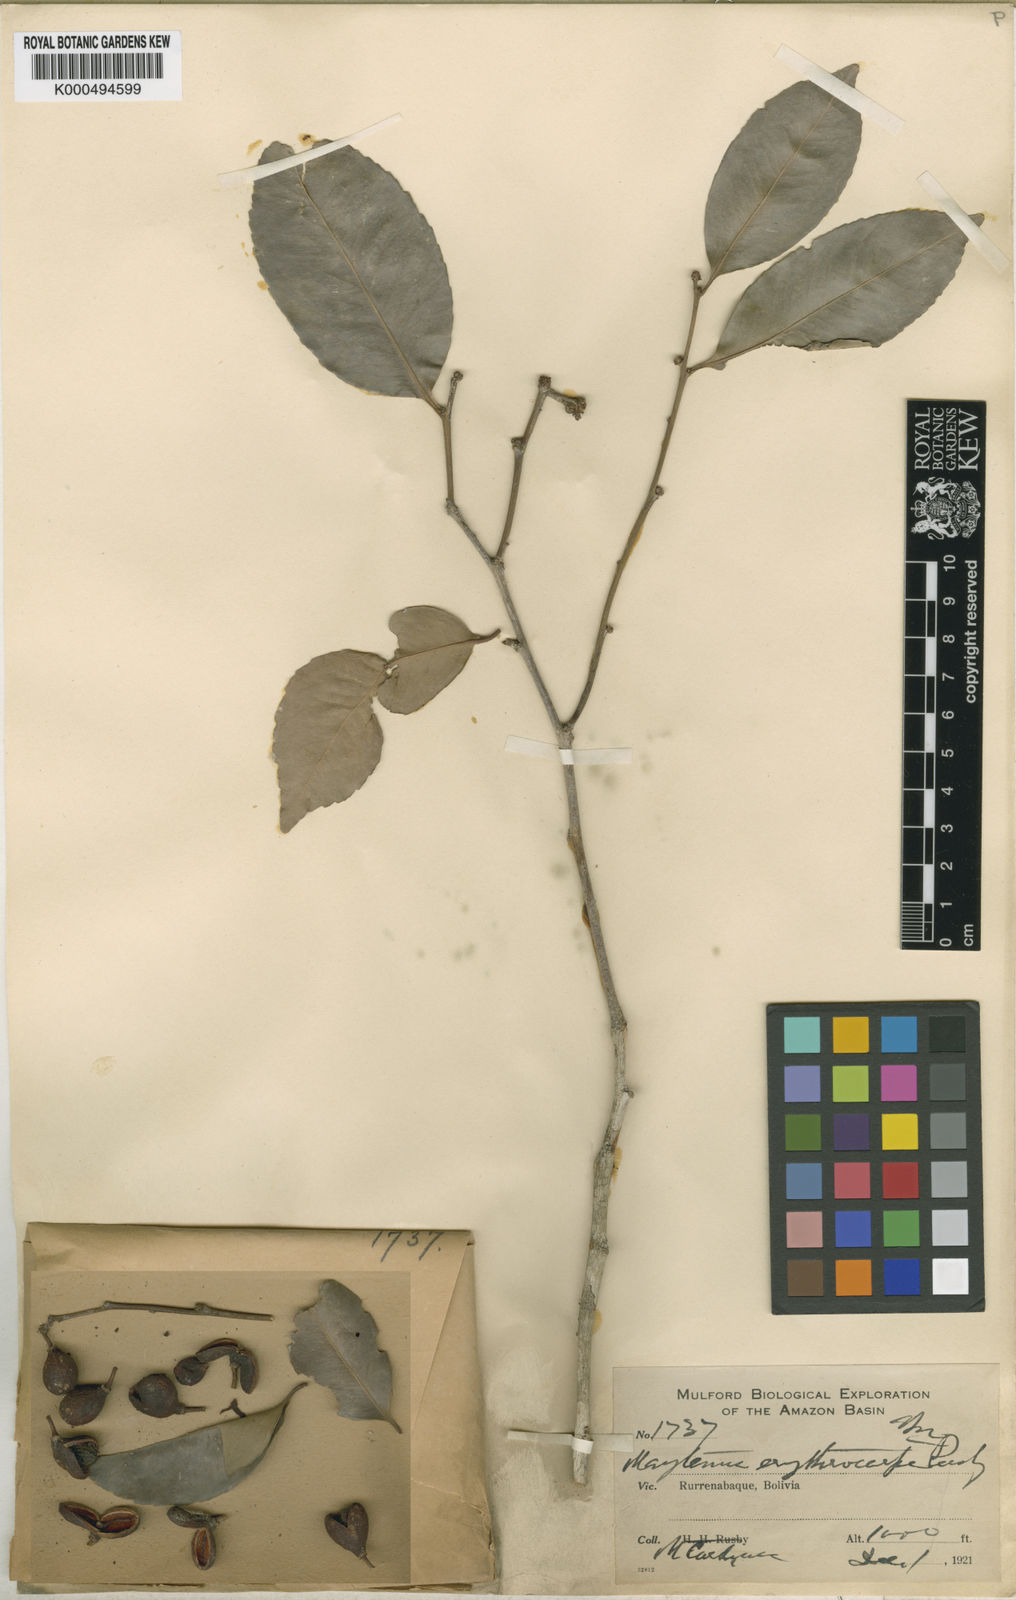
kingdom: Plantae
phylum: Tracheophyta
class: Magnoliopsida
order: Celastrales
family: Celastraceae
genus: Monteverdia
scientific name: Monteverdia flagellata
